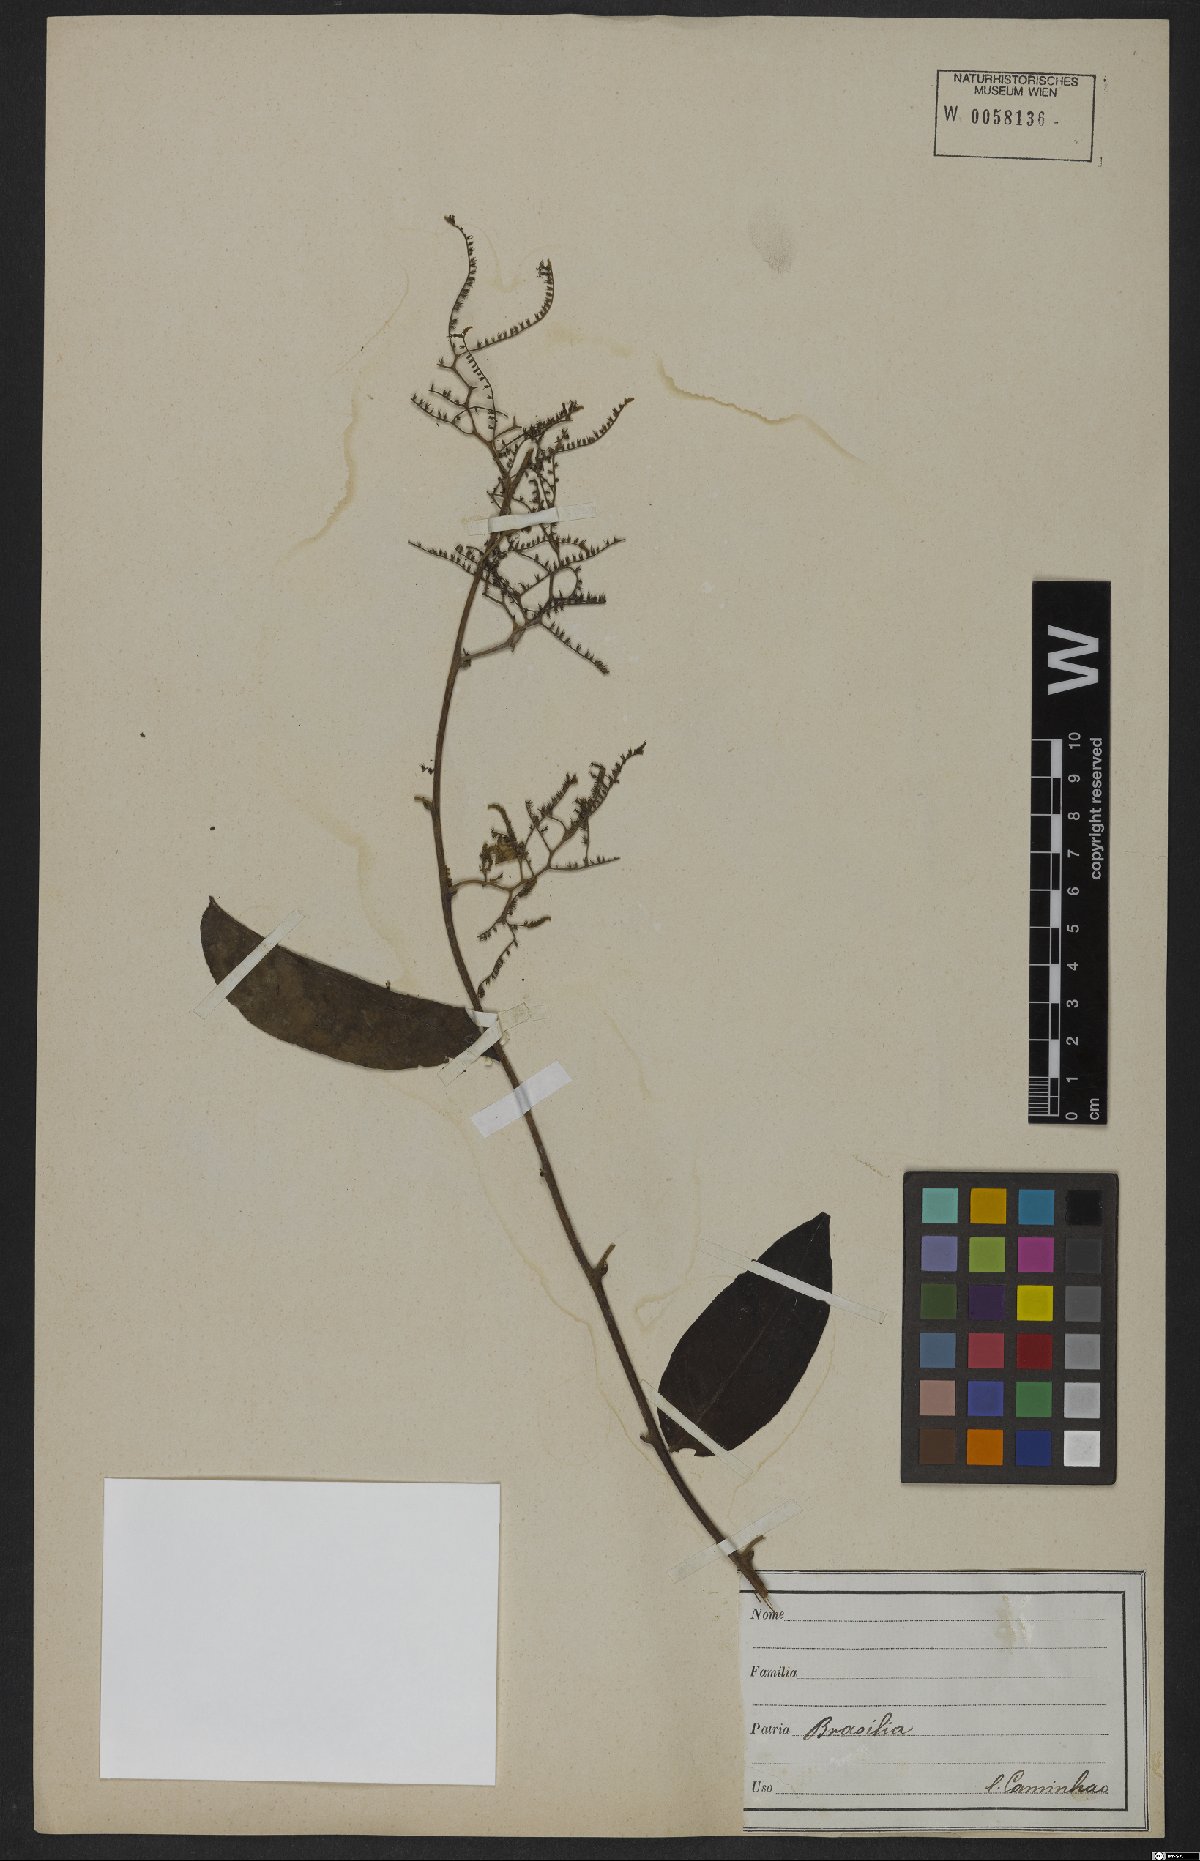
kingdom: Plantae
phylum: Tracheophyta
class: Magnoliopsida
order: Boraginales
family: Heliotropiaceae
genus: Myriopus
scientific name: Myriopus volubilis
